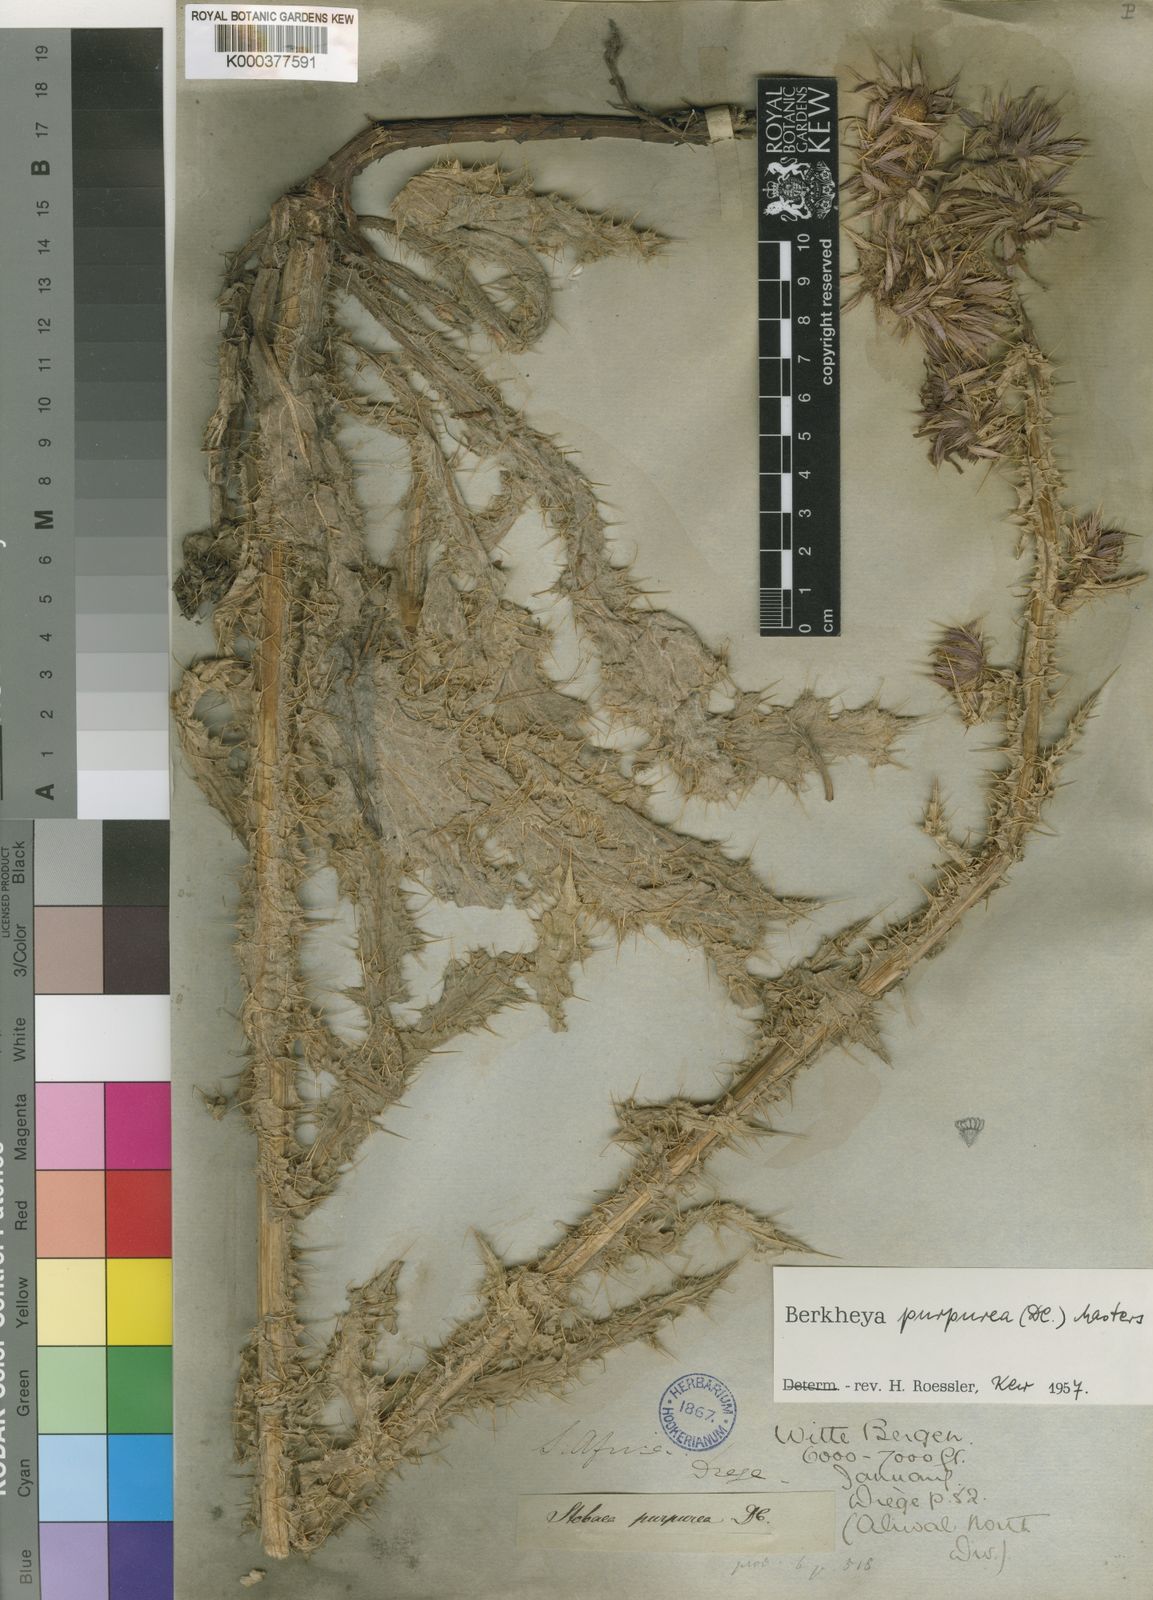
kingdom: Plantae
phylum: Tracheophyta
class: Magnoliopsida
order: Asterales
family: Asteraceae
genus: Berkheya
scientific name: Berkheya purpurea
